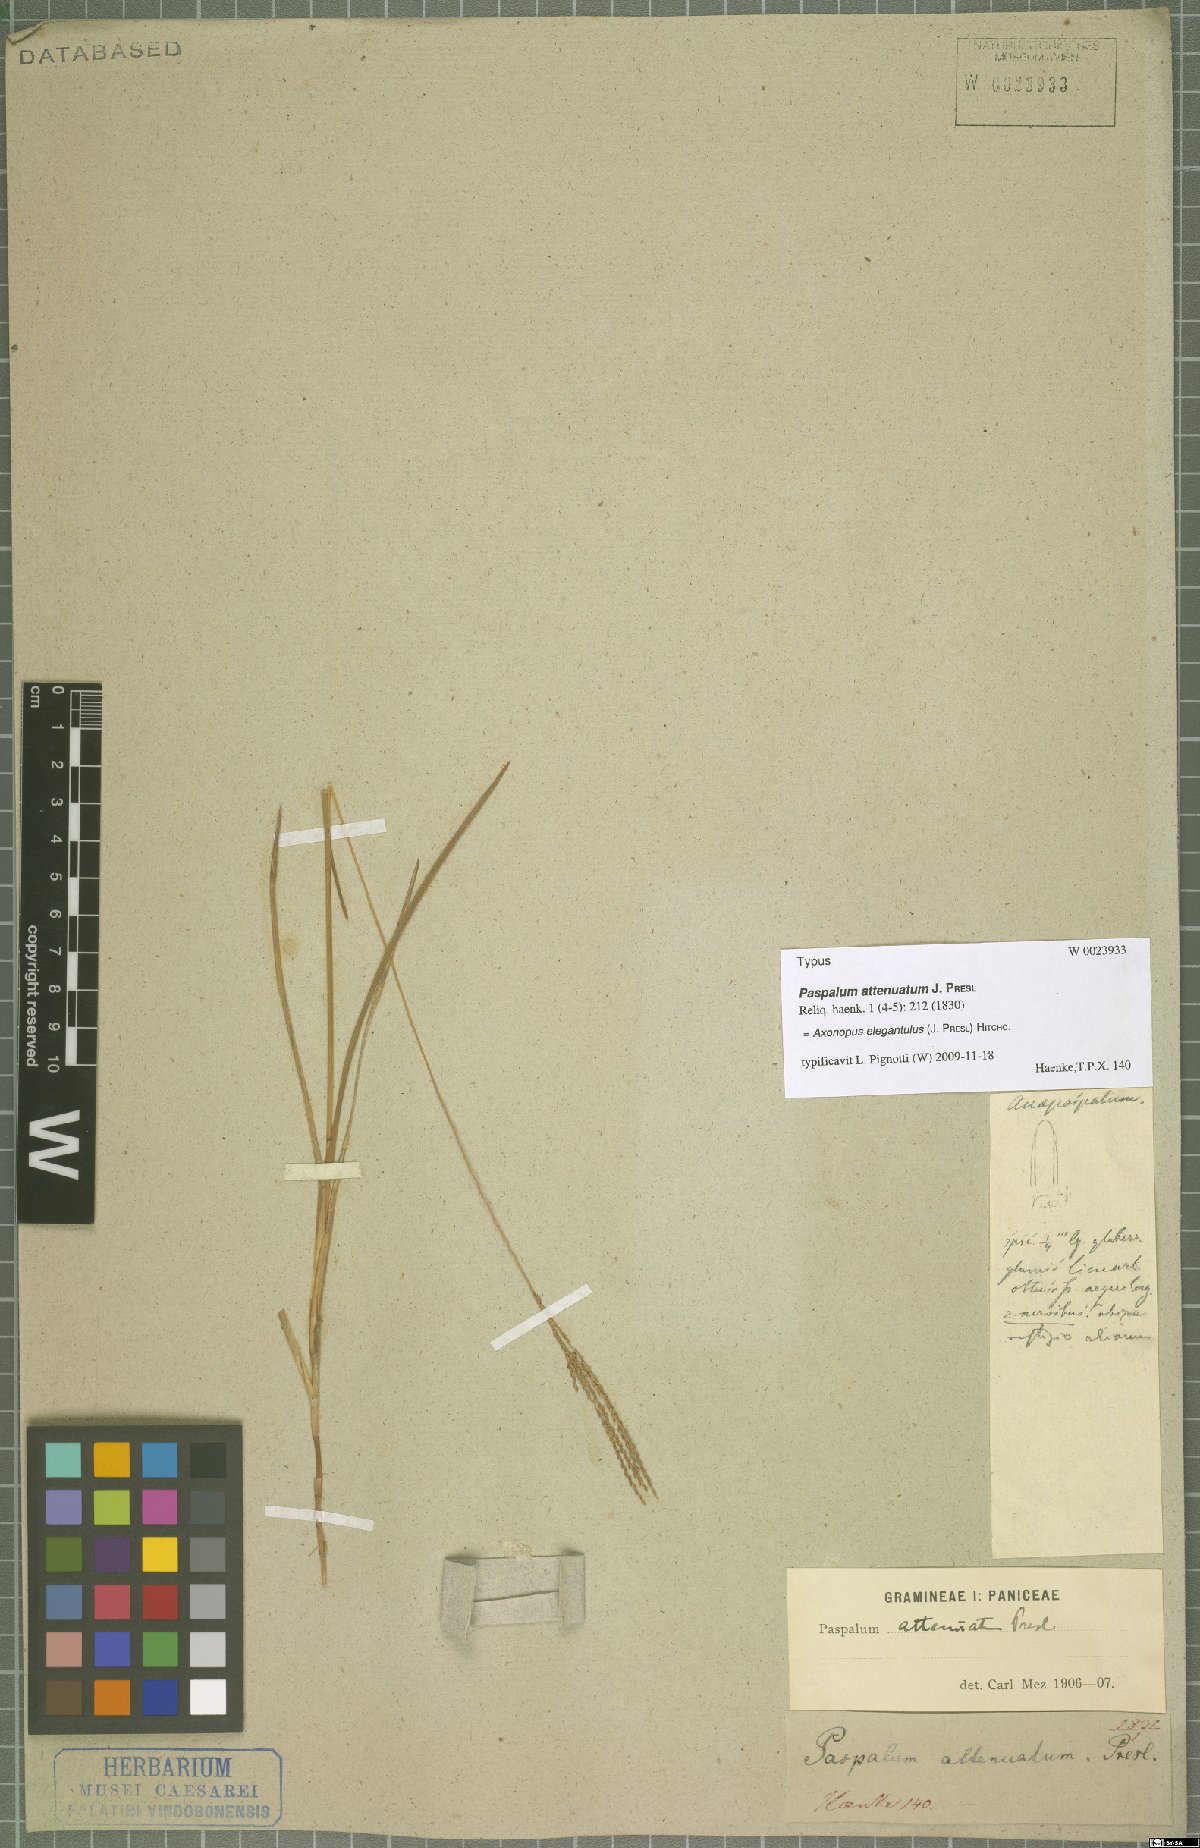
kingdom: Plantae
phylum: Tracheophyta
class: Liliopsida
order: Poales
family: Poaceae
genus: Axonopus
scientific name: Axonopus elegantulus
